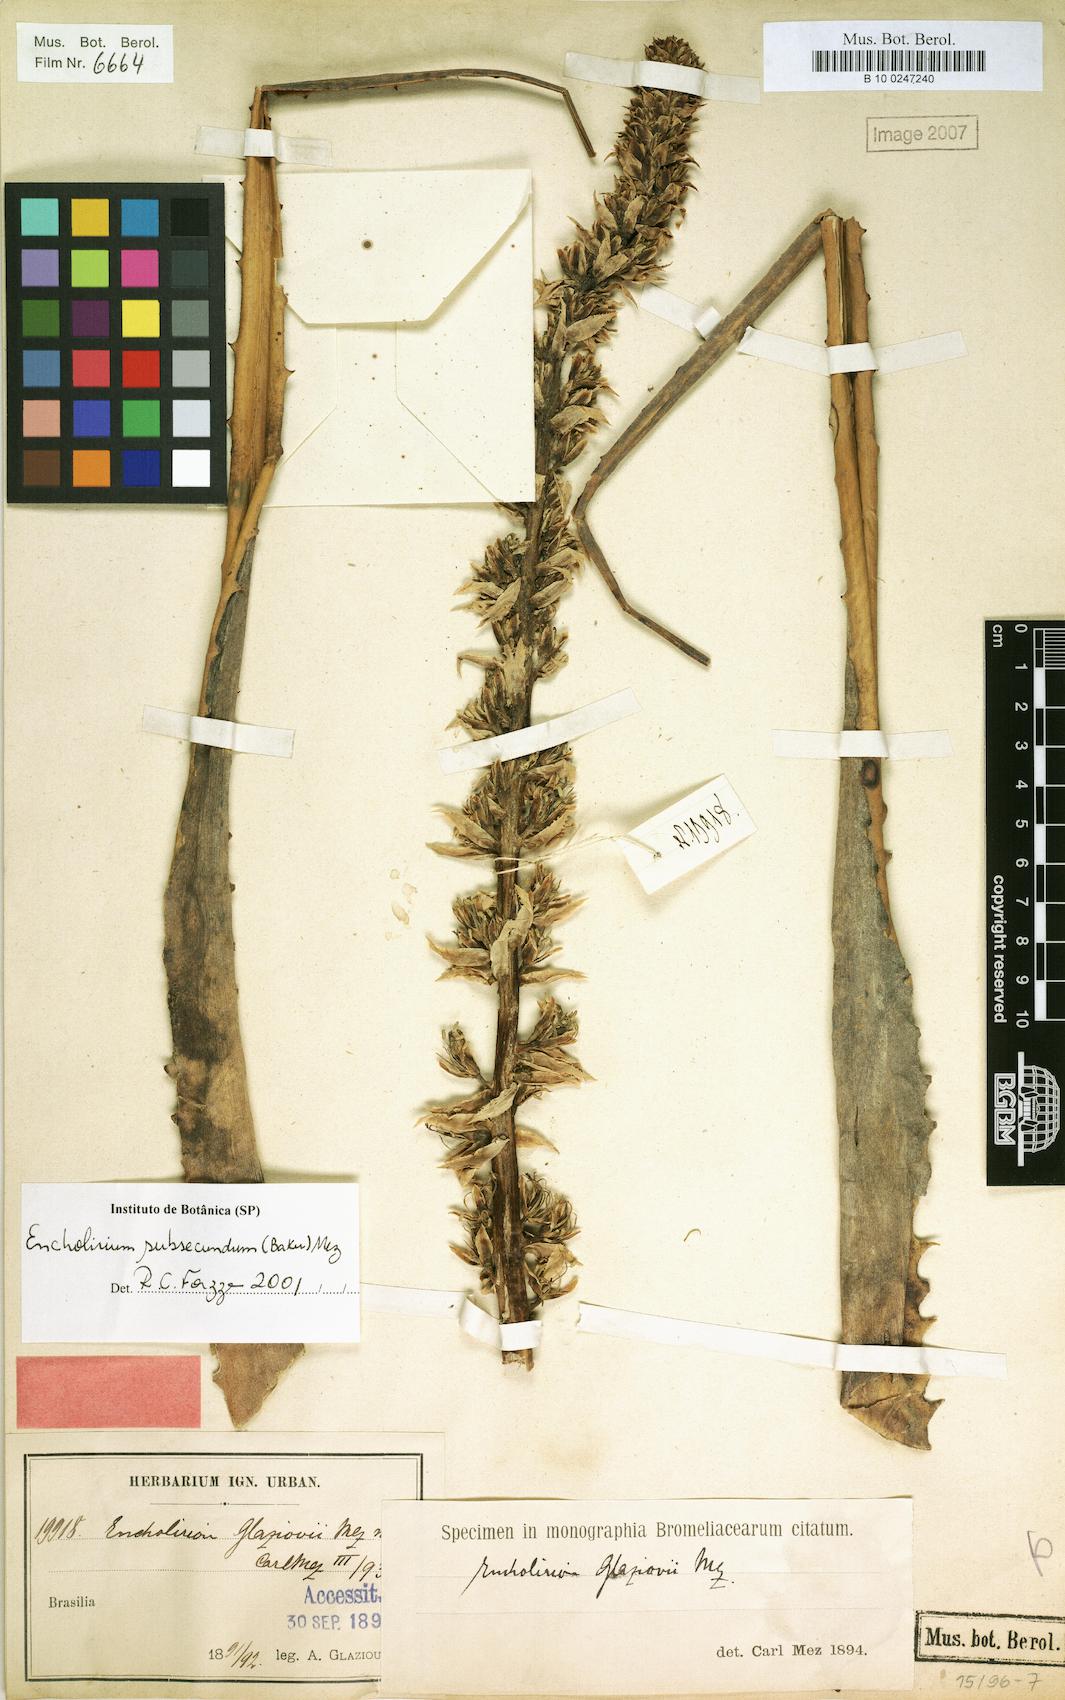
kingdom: Plantae
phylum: Tracheophyta
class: Liliopsida
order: Poales
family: Bromeliaceae
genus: Encholirium
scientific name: Encholirium subsecundum
